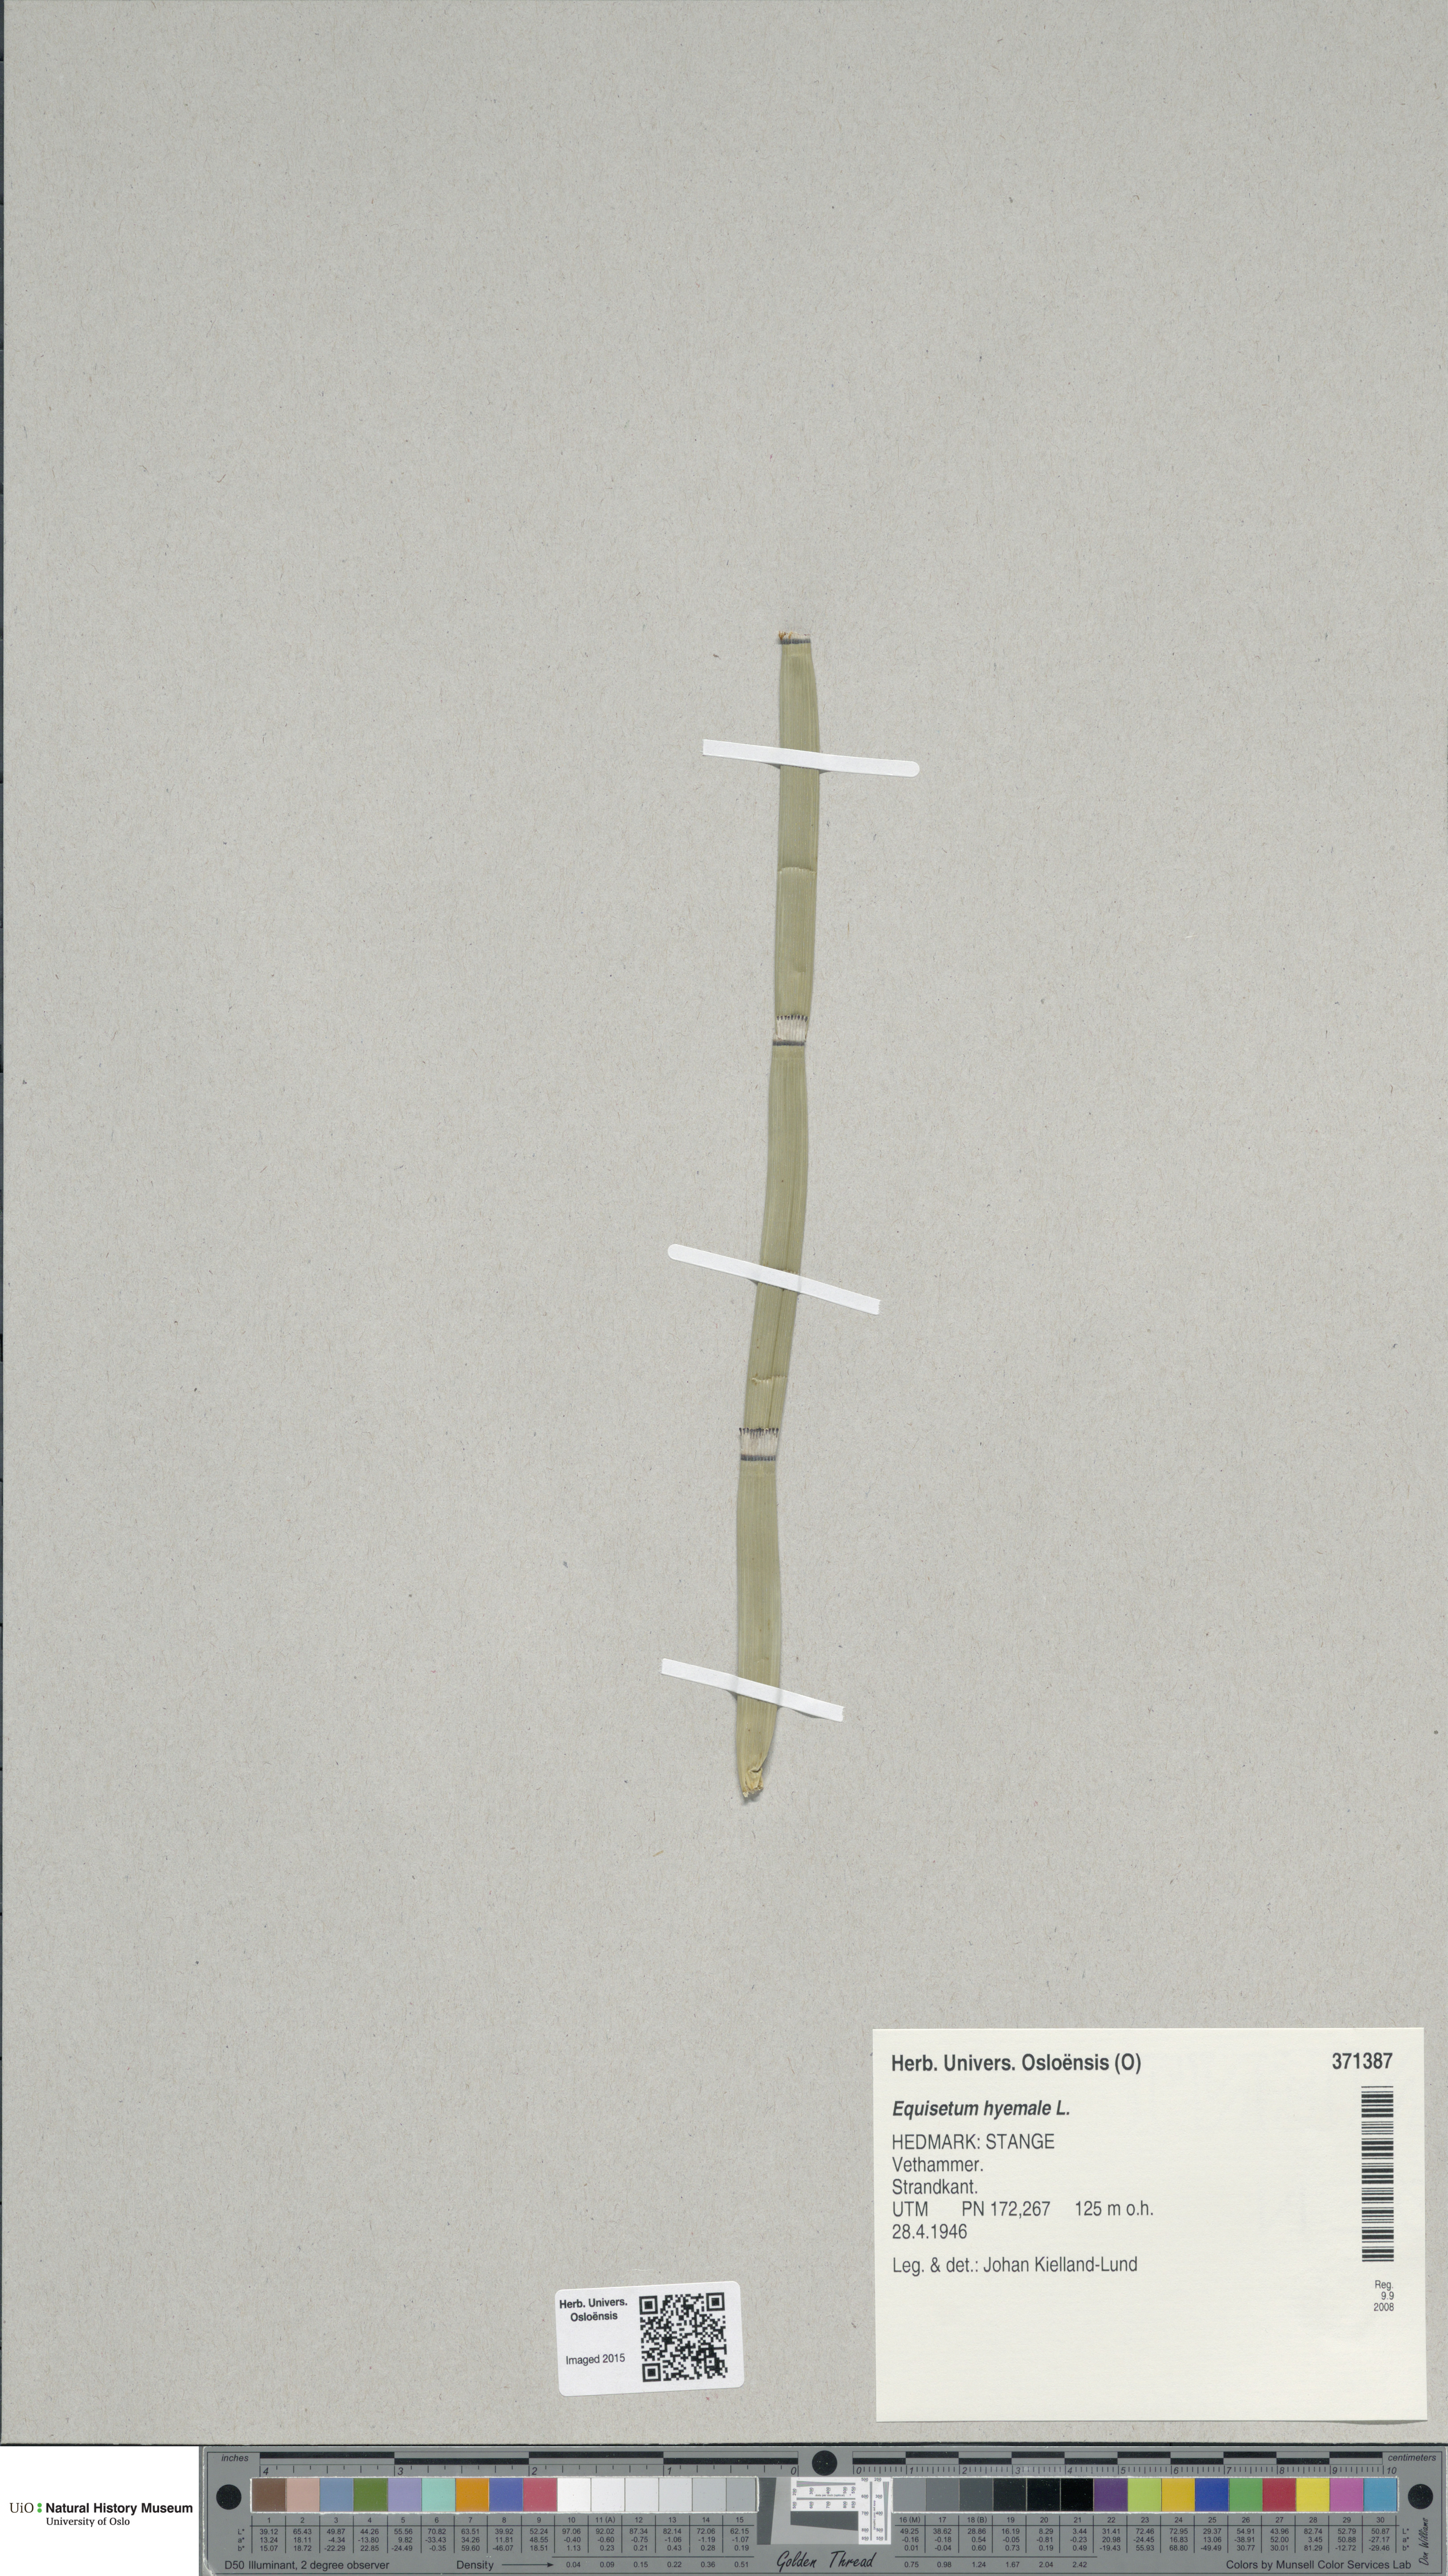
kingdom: Plantae
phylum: Tracheophyta
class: Polypodiopsida
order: Equisetales
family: Equisetaceae
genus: Equisetum
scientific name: Equisetum hyemale
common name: Rough horsetail
